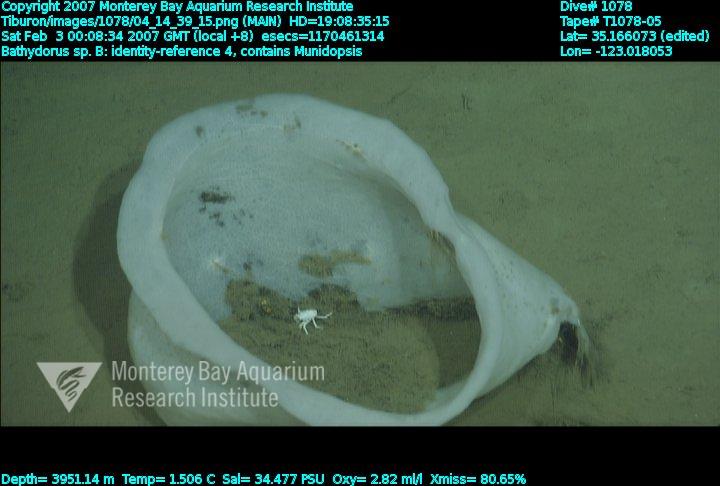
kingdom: Animalia
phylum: Porifera
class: Hexactinellida
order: Lyssacinosida
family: Rossellidae
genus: Bathydorus
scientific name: Bathydorus
